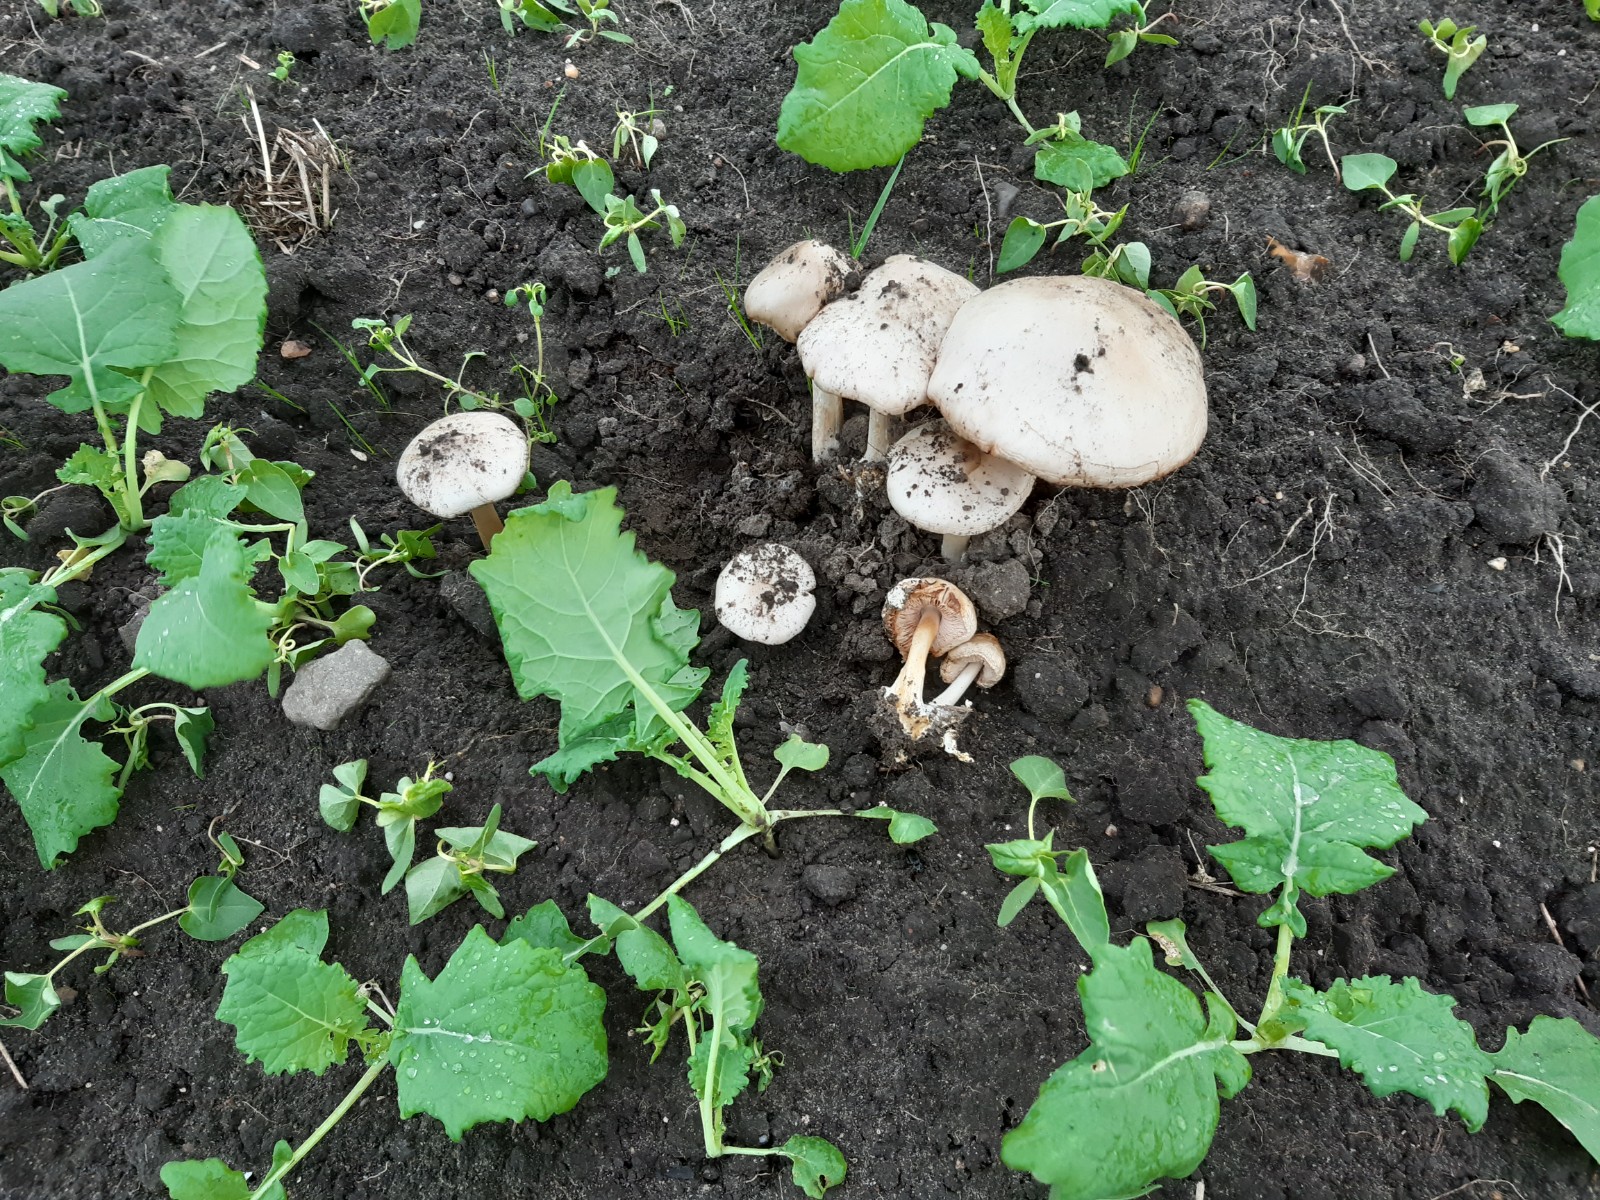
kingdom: Fungi
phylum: Basidiomycota
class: Agaricomycetes
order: Agaricales
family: Pluteaceae
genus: Volvopluteus
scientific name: Volvopluteus gloiocephalus
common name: høj posesvamp
